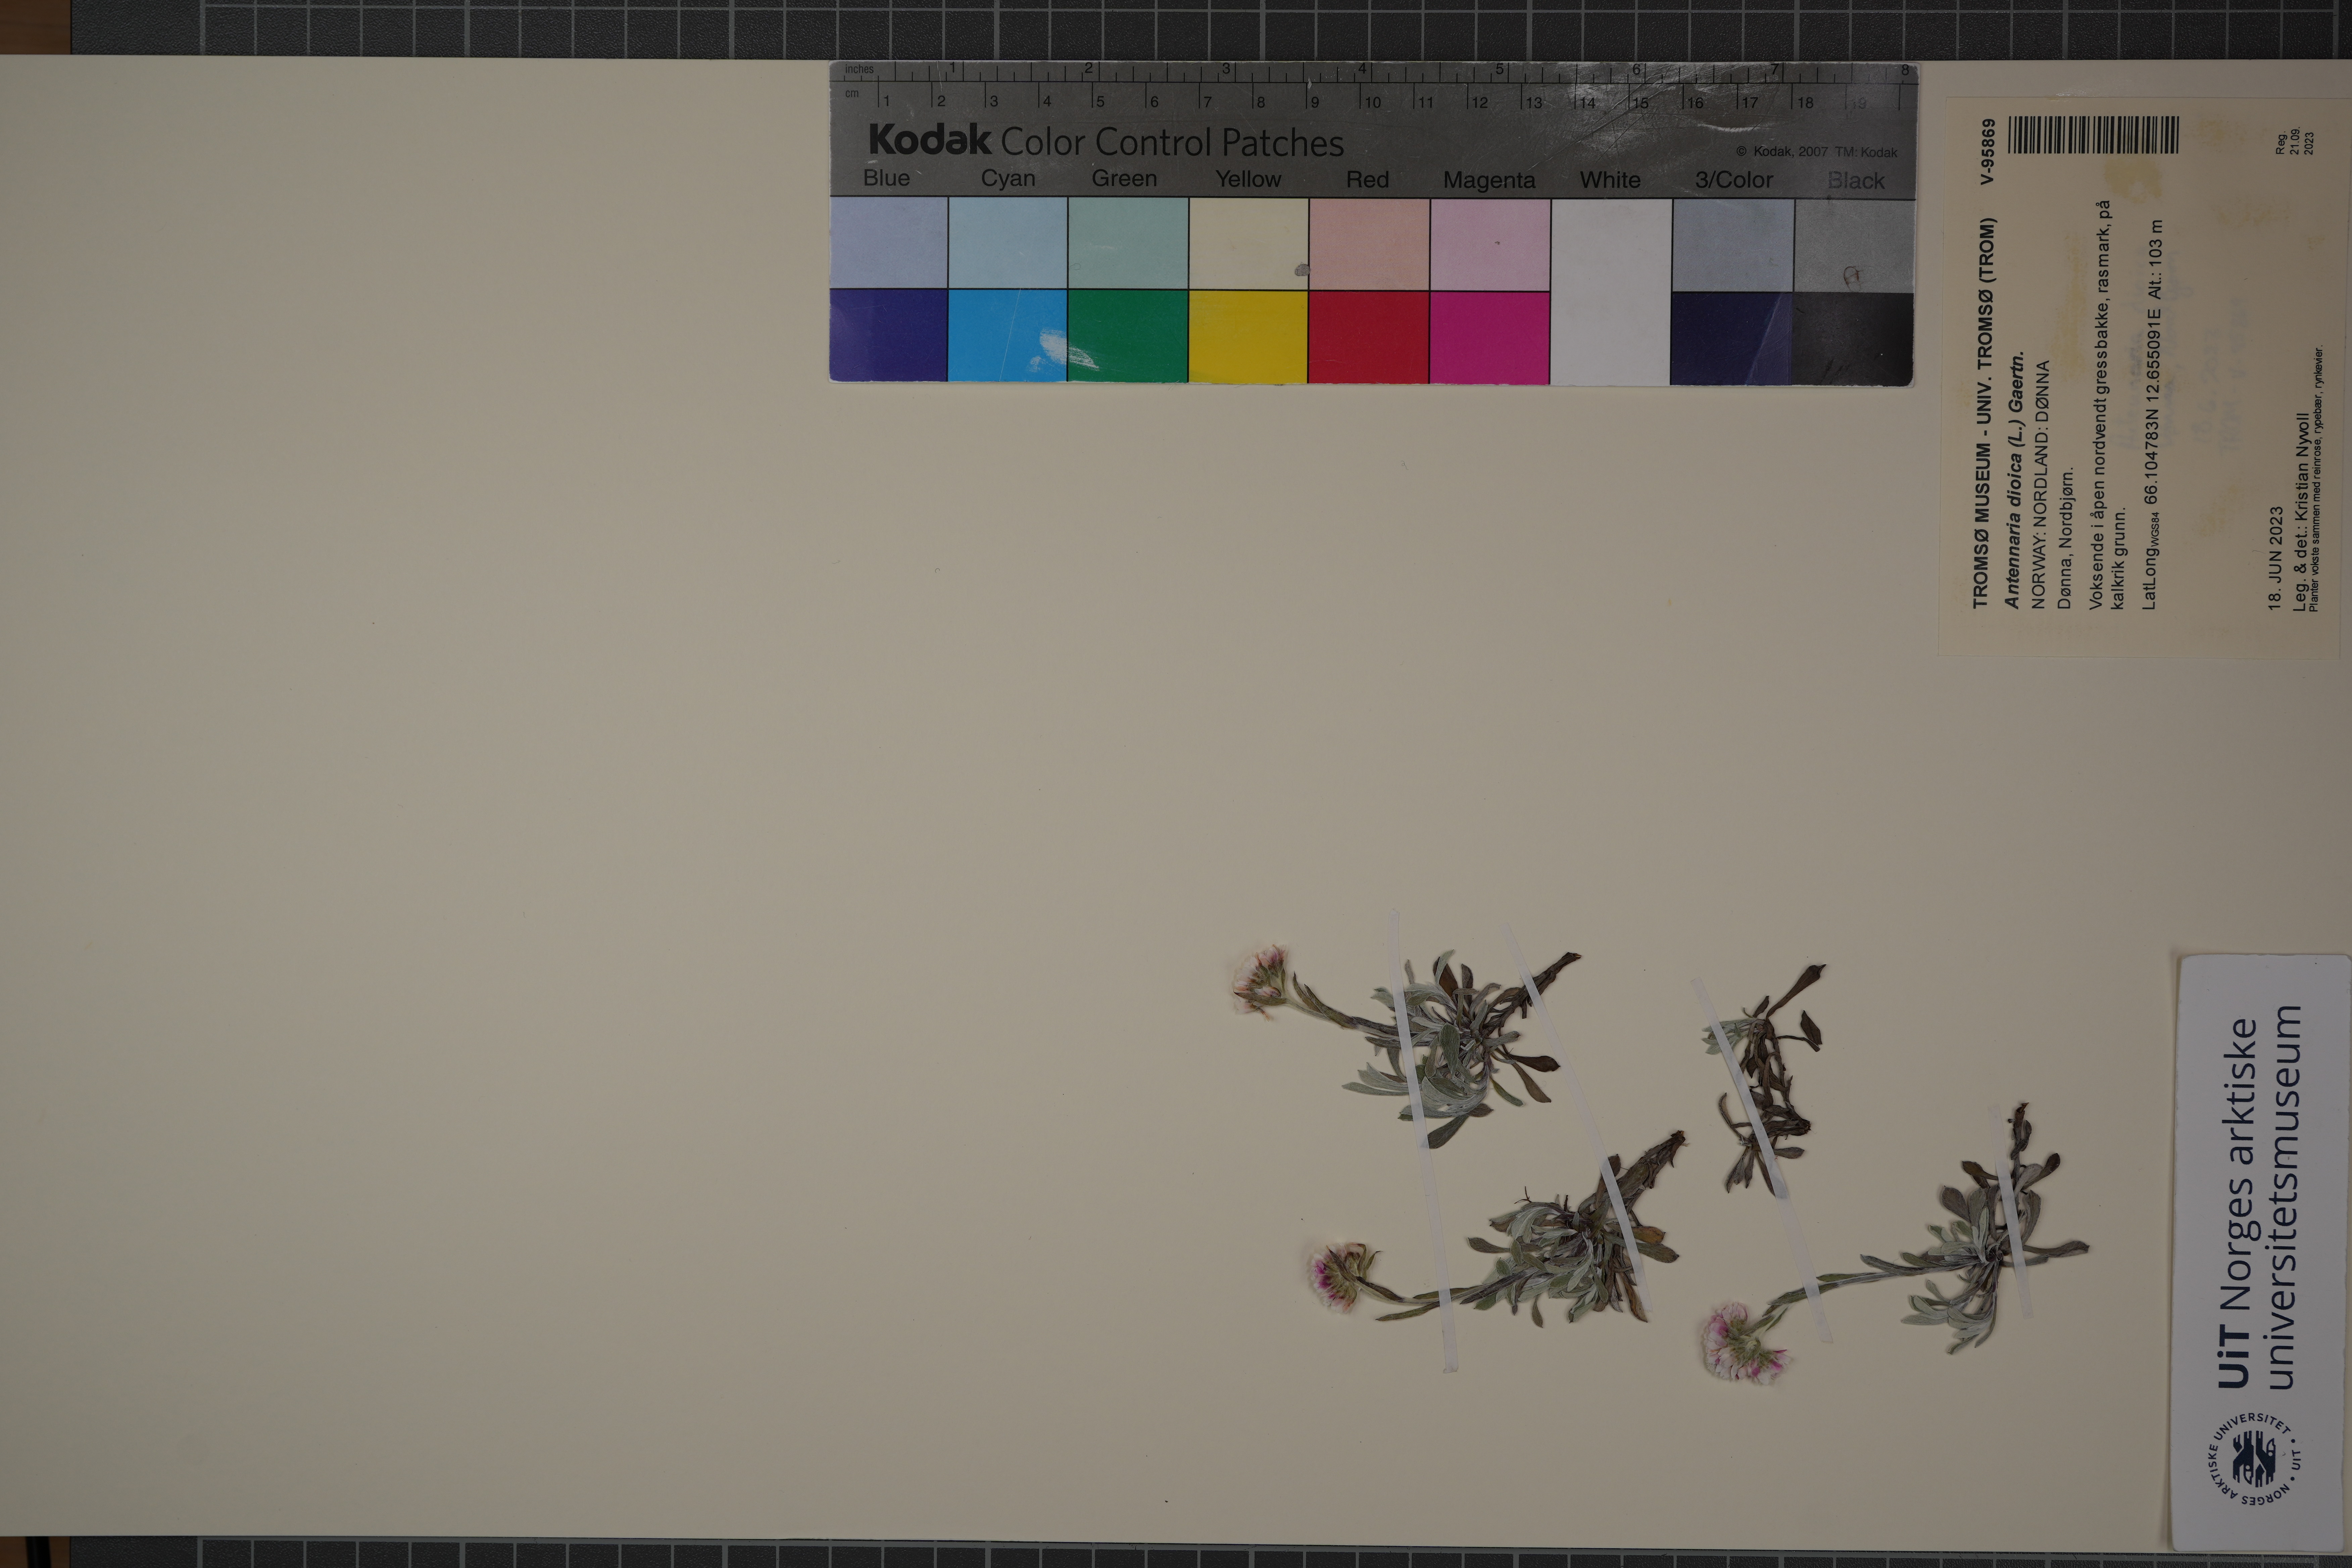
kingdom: Plantae
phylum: Tracheophyta
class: Magnoliopsida
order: Asterales
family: Asteraceae
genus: Antennaria
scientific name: Antennaria dioica
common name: Mountain everlasting
